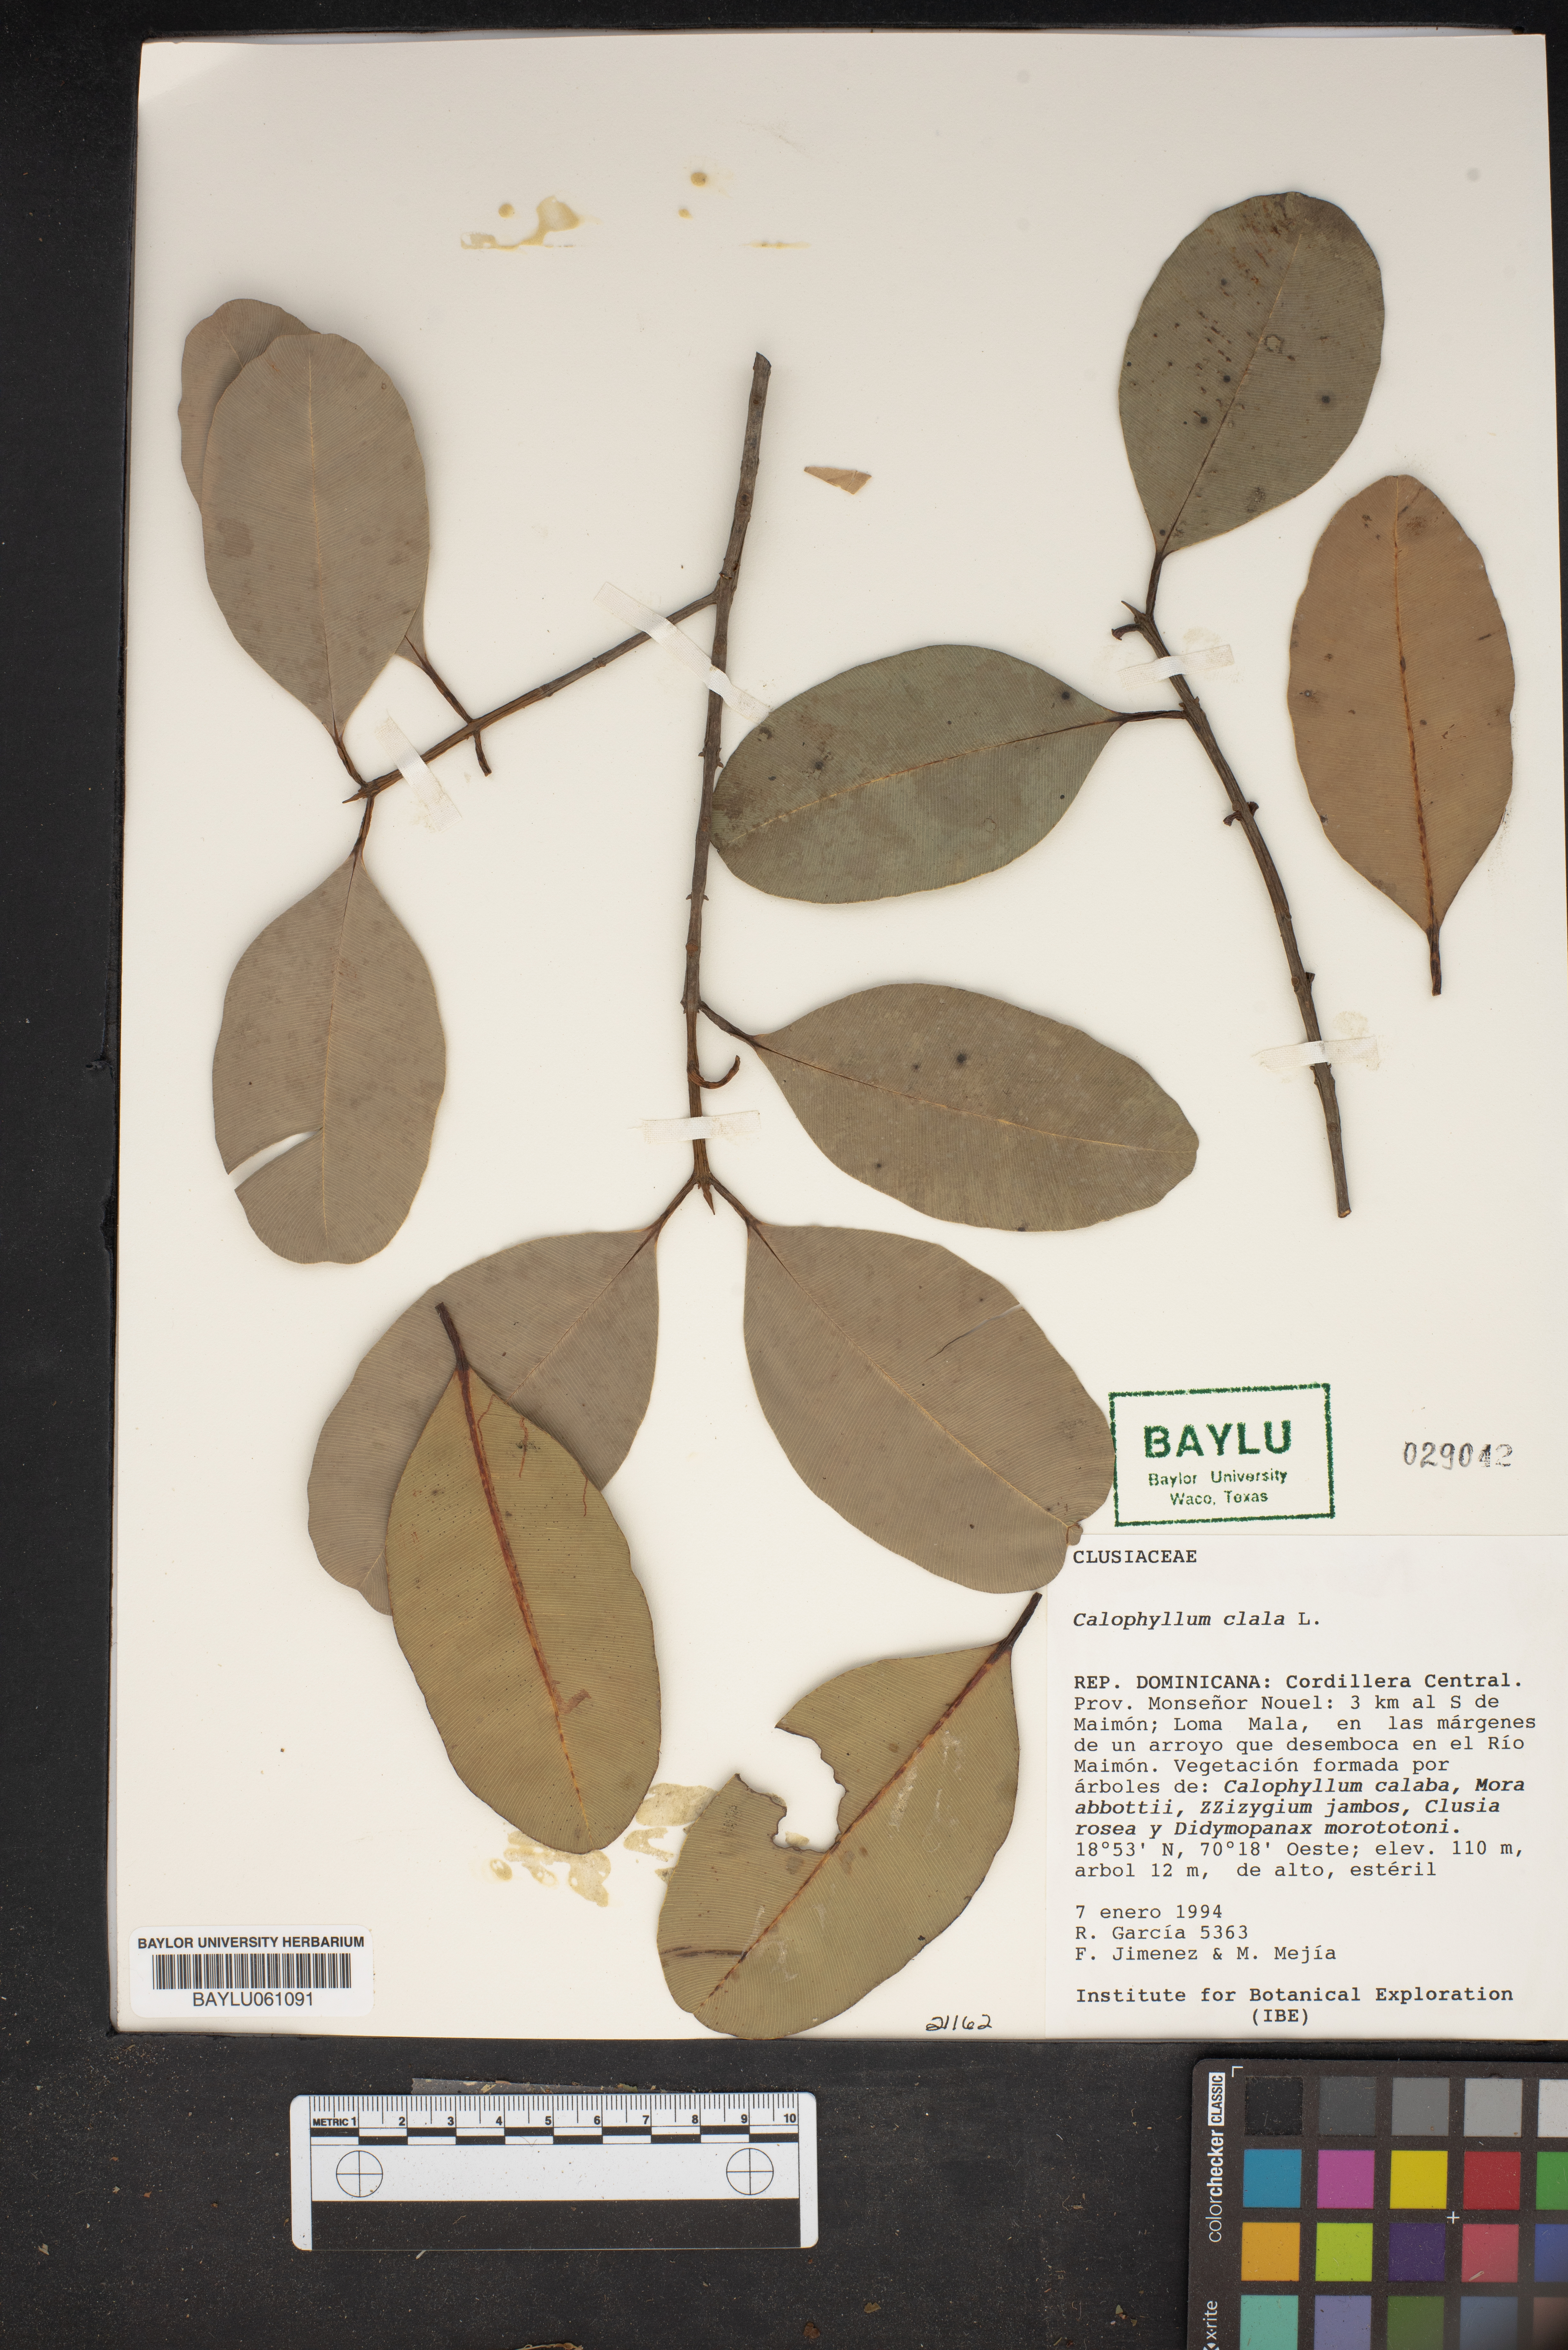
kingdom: Plantae
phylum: Tracheophyta
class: Magnoliopsida
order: Malpighiales
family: Calophyllaceae
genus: Calophyllum
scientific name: Calophyllum
